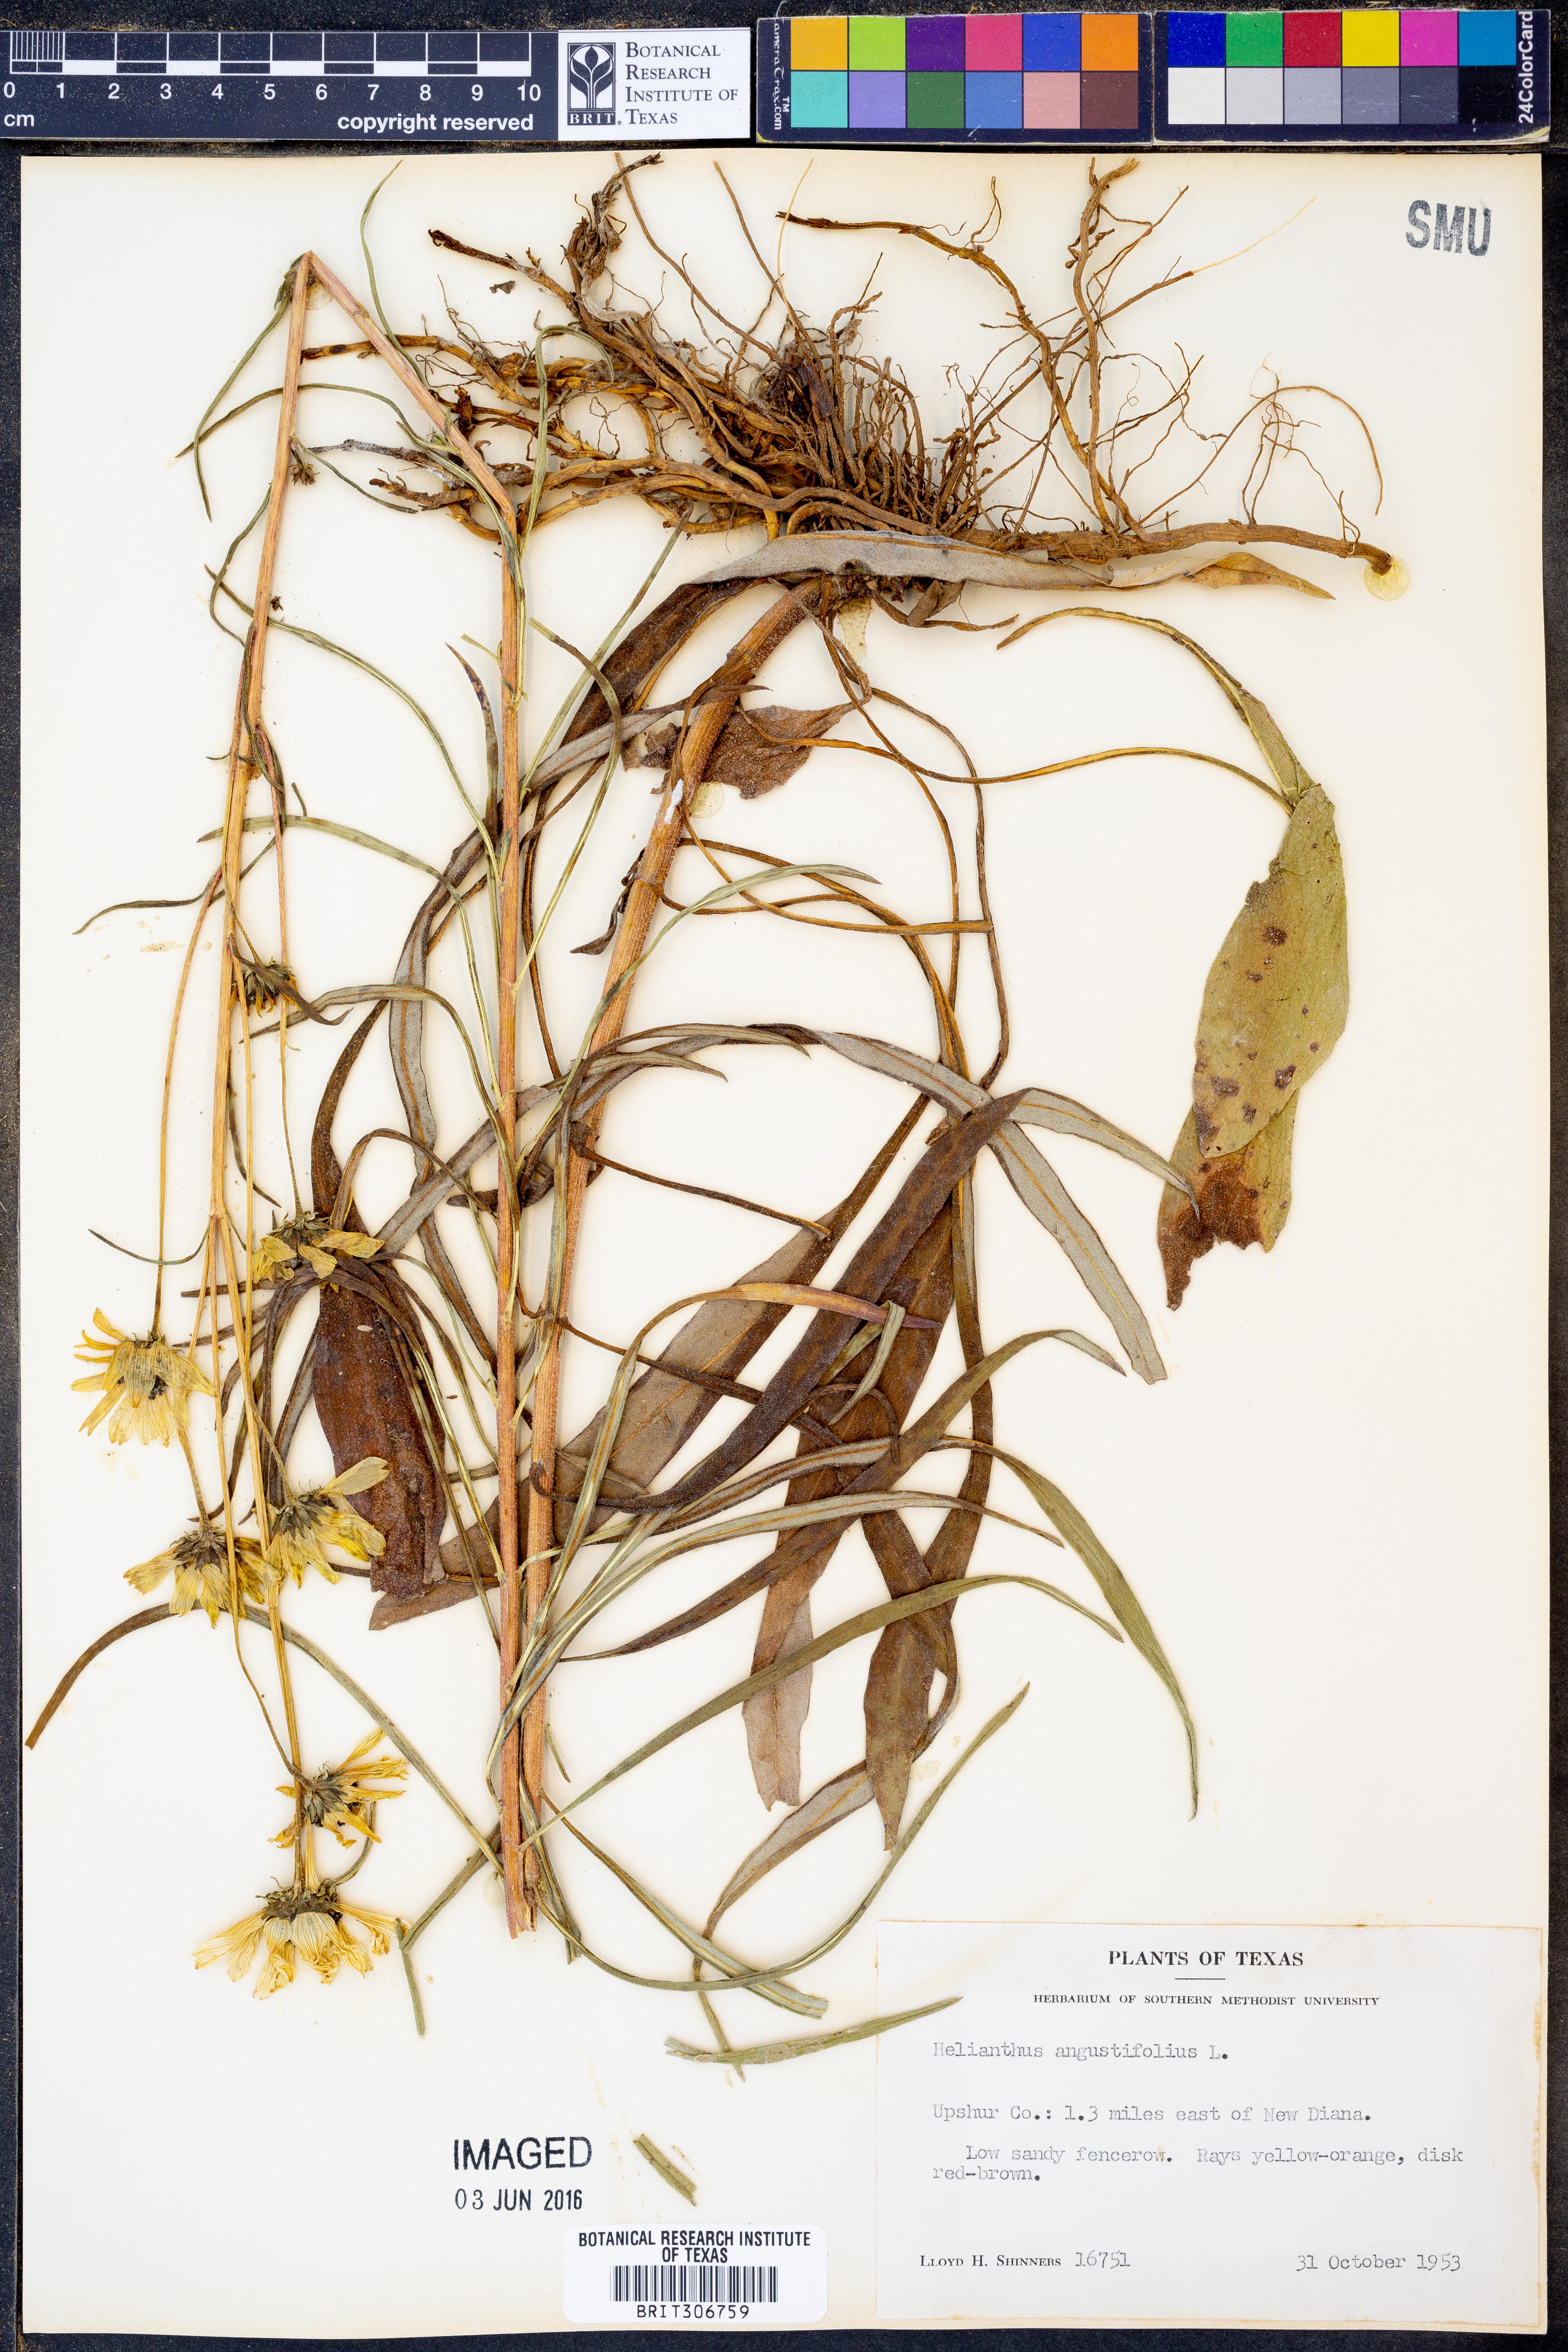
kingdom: Plantae
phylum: Tracheophyta
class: Magnoliopsida
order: Asterales
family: Asteraceae
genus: Helianthus
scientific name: Helianthus angustifolius
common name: Swamp sunflower
